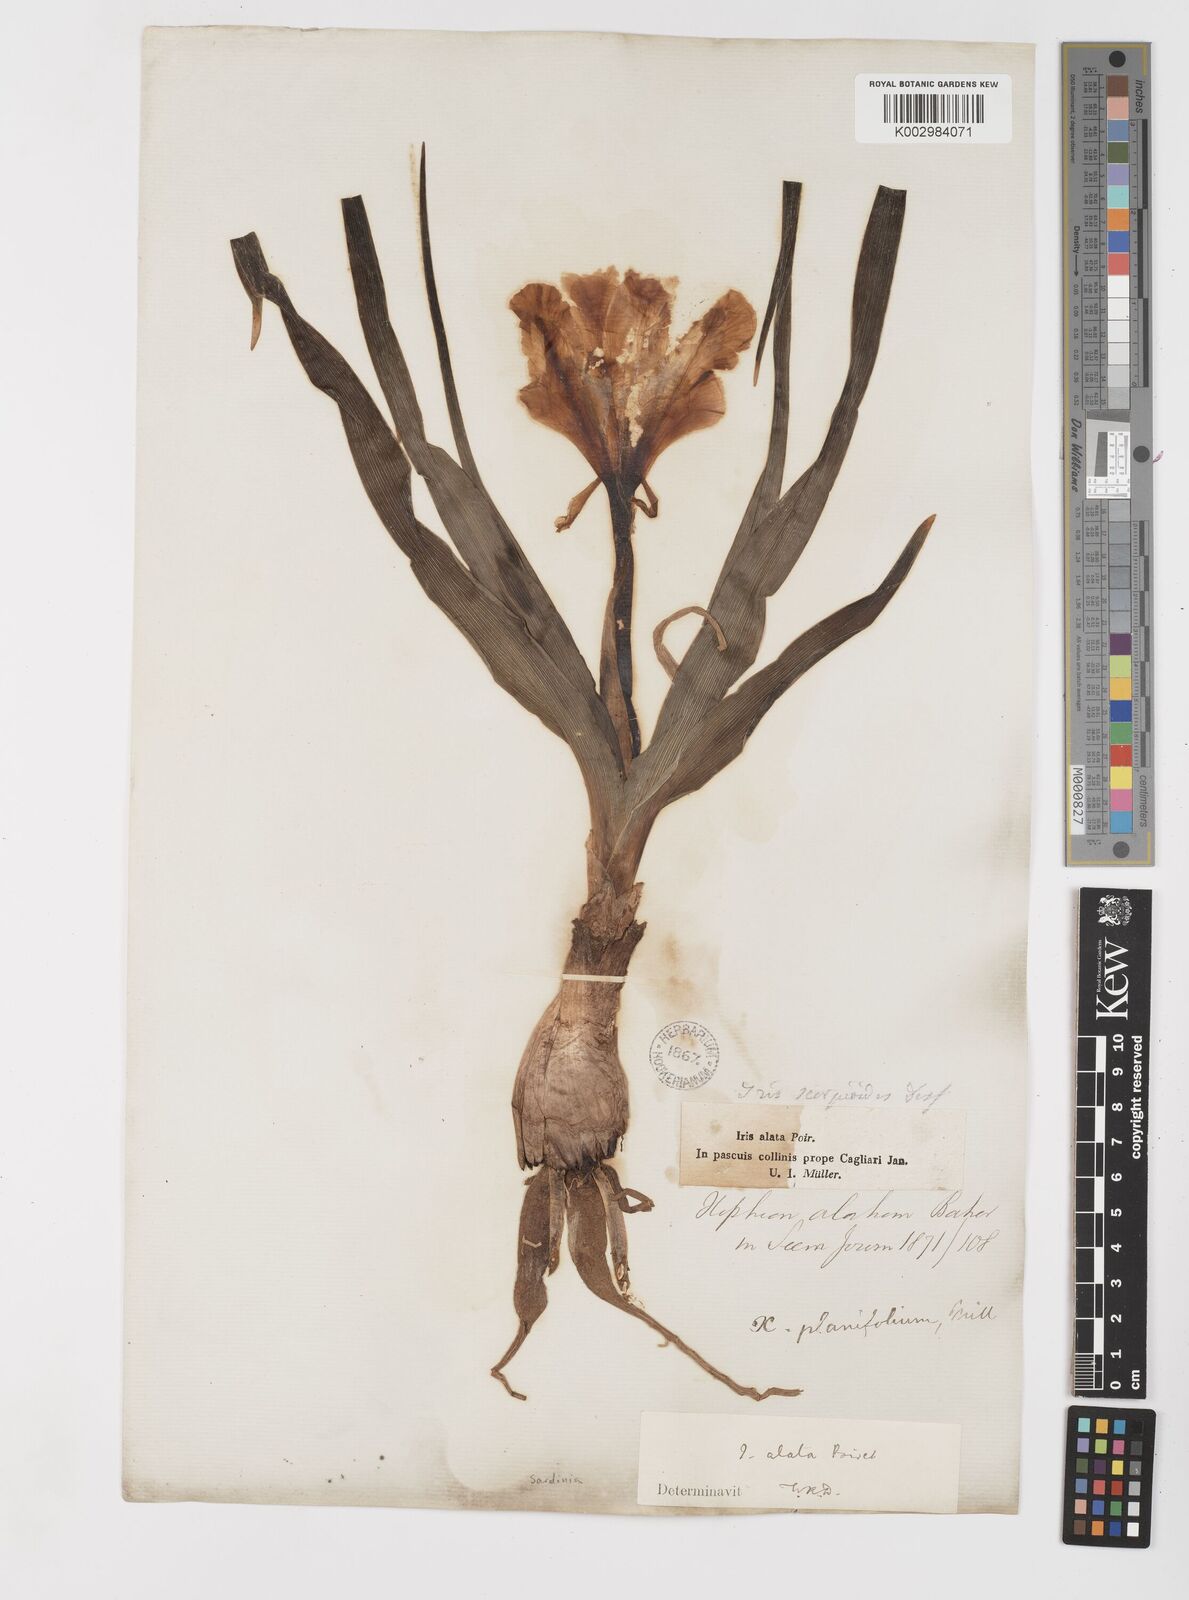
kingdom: Plantae
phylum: Tracheophyta
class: Liliopsida
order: Asparagales
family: Iridaceae
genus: Iris
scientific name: Iris planifolia
